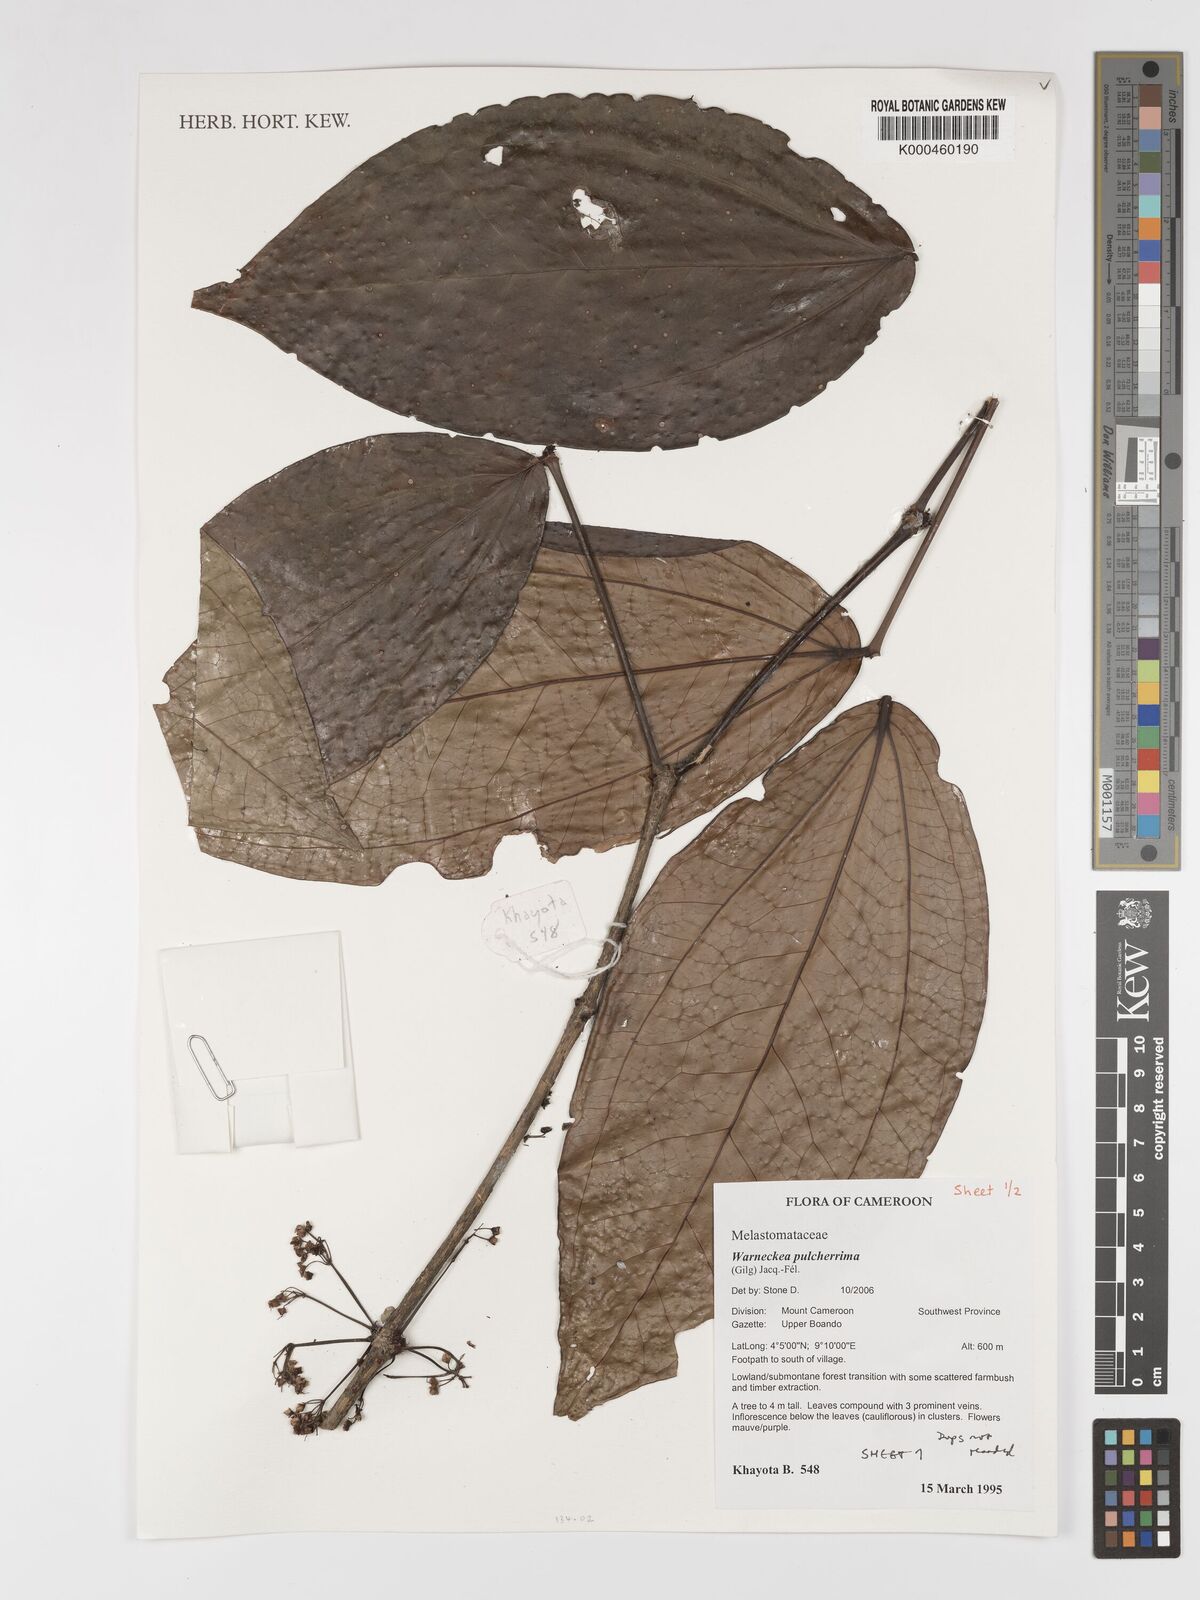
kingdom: Plantae
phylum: Tracheophyta
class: Magnoliopsida
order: Myrtales
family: Melastomataceae
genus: Warneckea
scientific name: Warneckea
